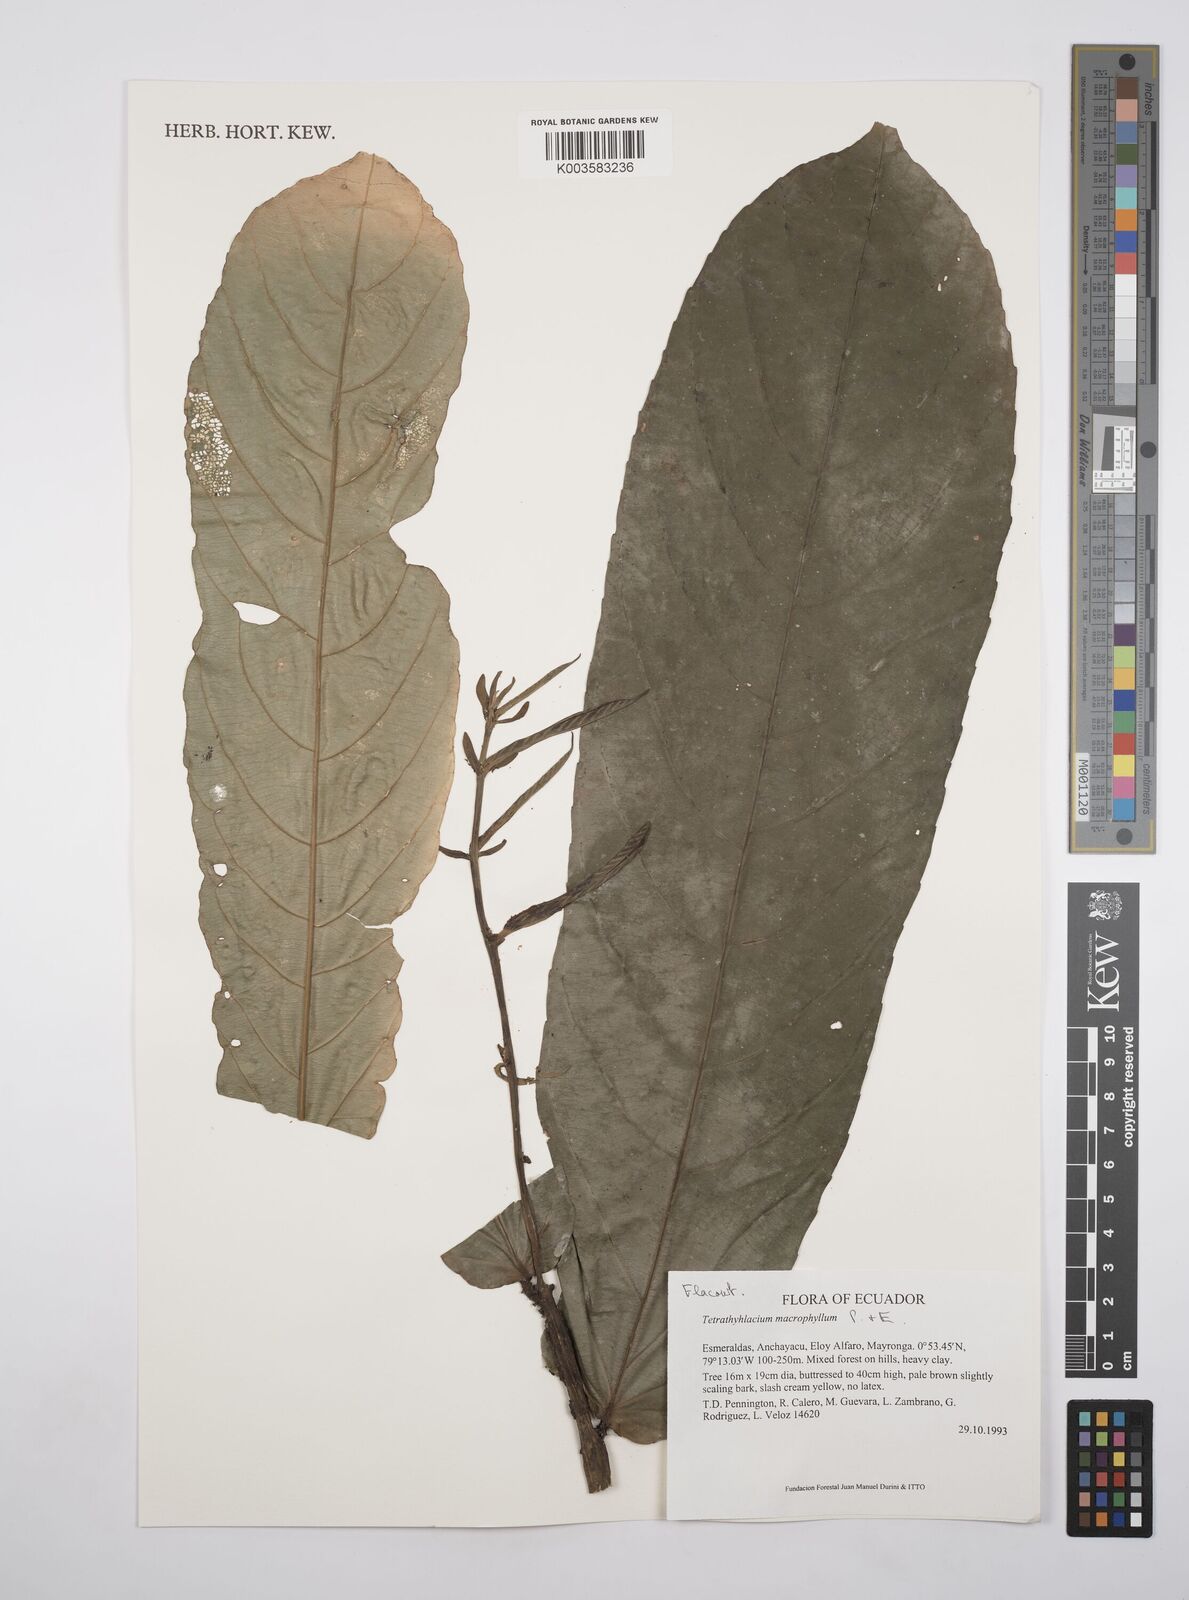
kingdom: Plantae
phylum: Tracheophyta
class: Magnoliopsida
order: Malpighiales
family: Salicaceae
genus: Tetrathylacium
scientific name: Tetrathylacium macrophyllum
